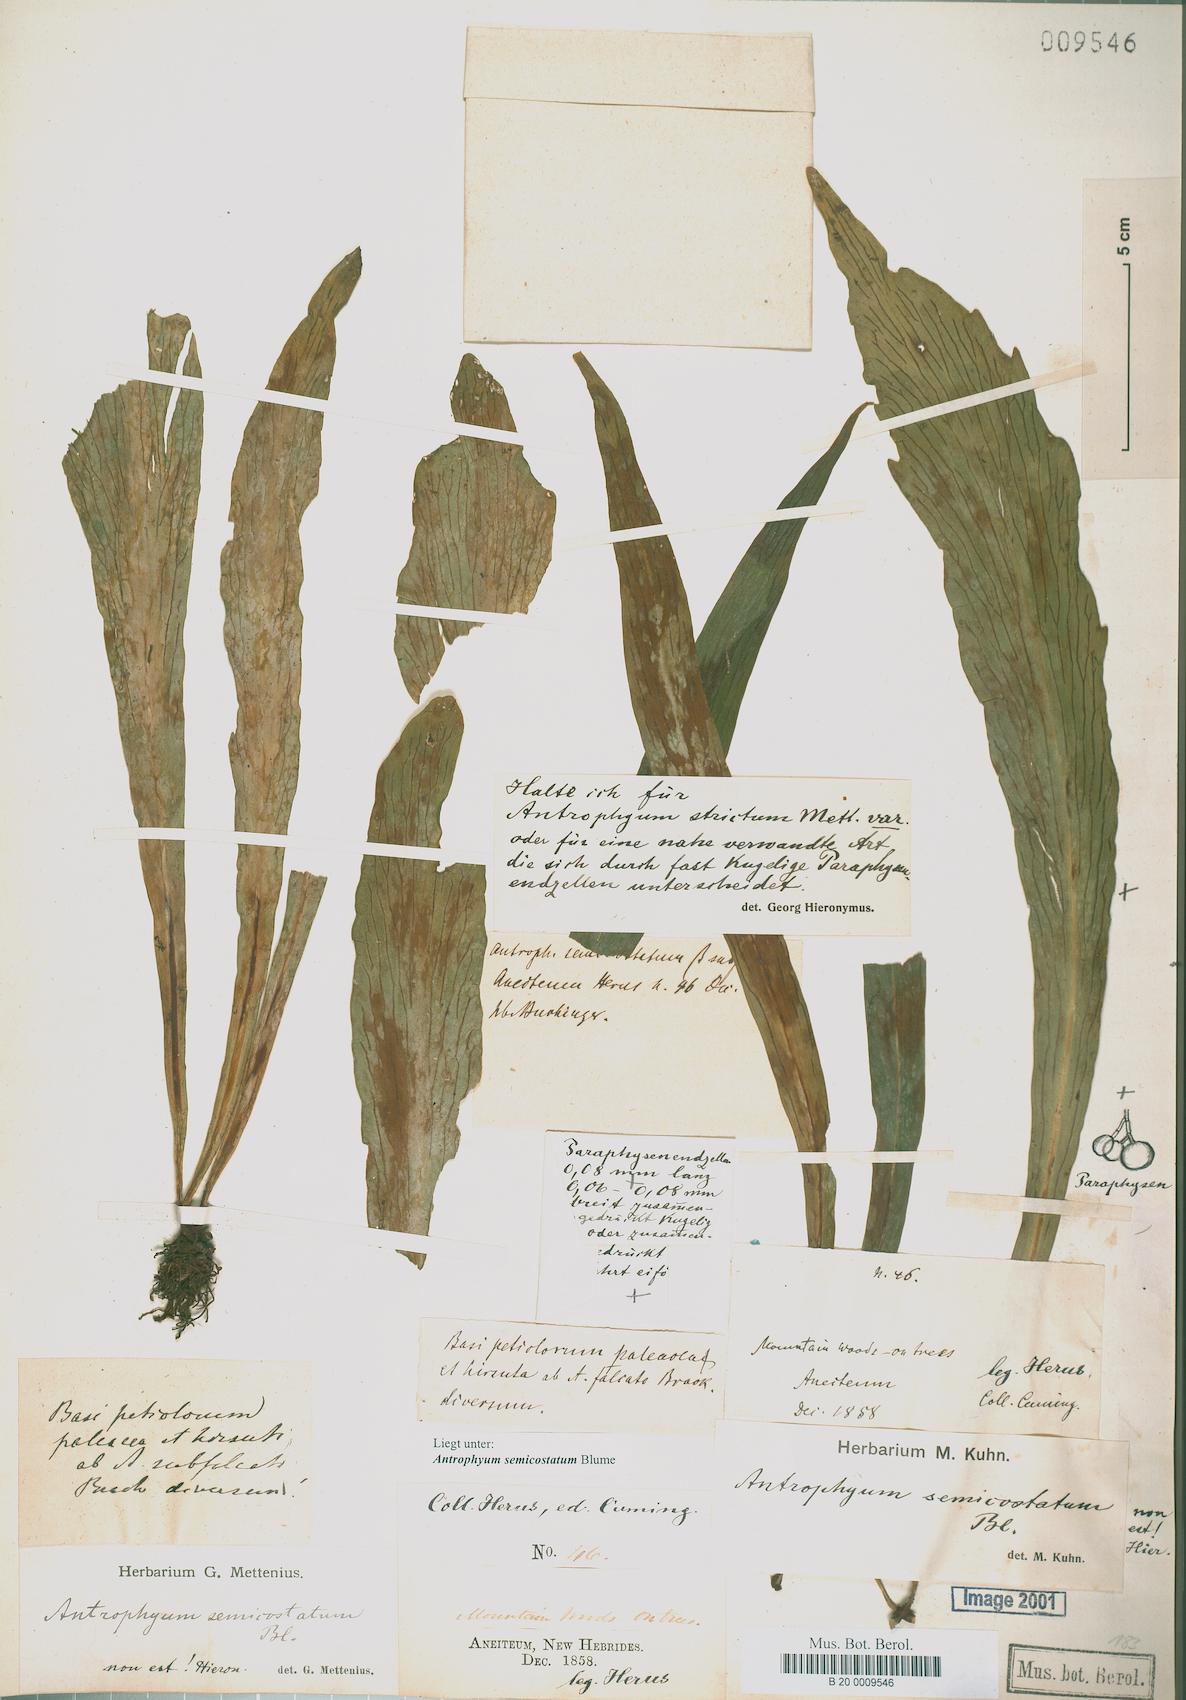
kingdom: Plantae
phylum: Tracheophyta
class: Polypodiopsida
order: Polypodiales
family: Pteridaceae
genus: Antrophyum
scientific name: Antrophyum semicostatum
